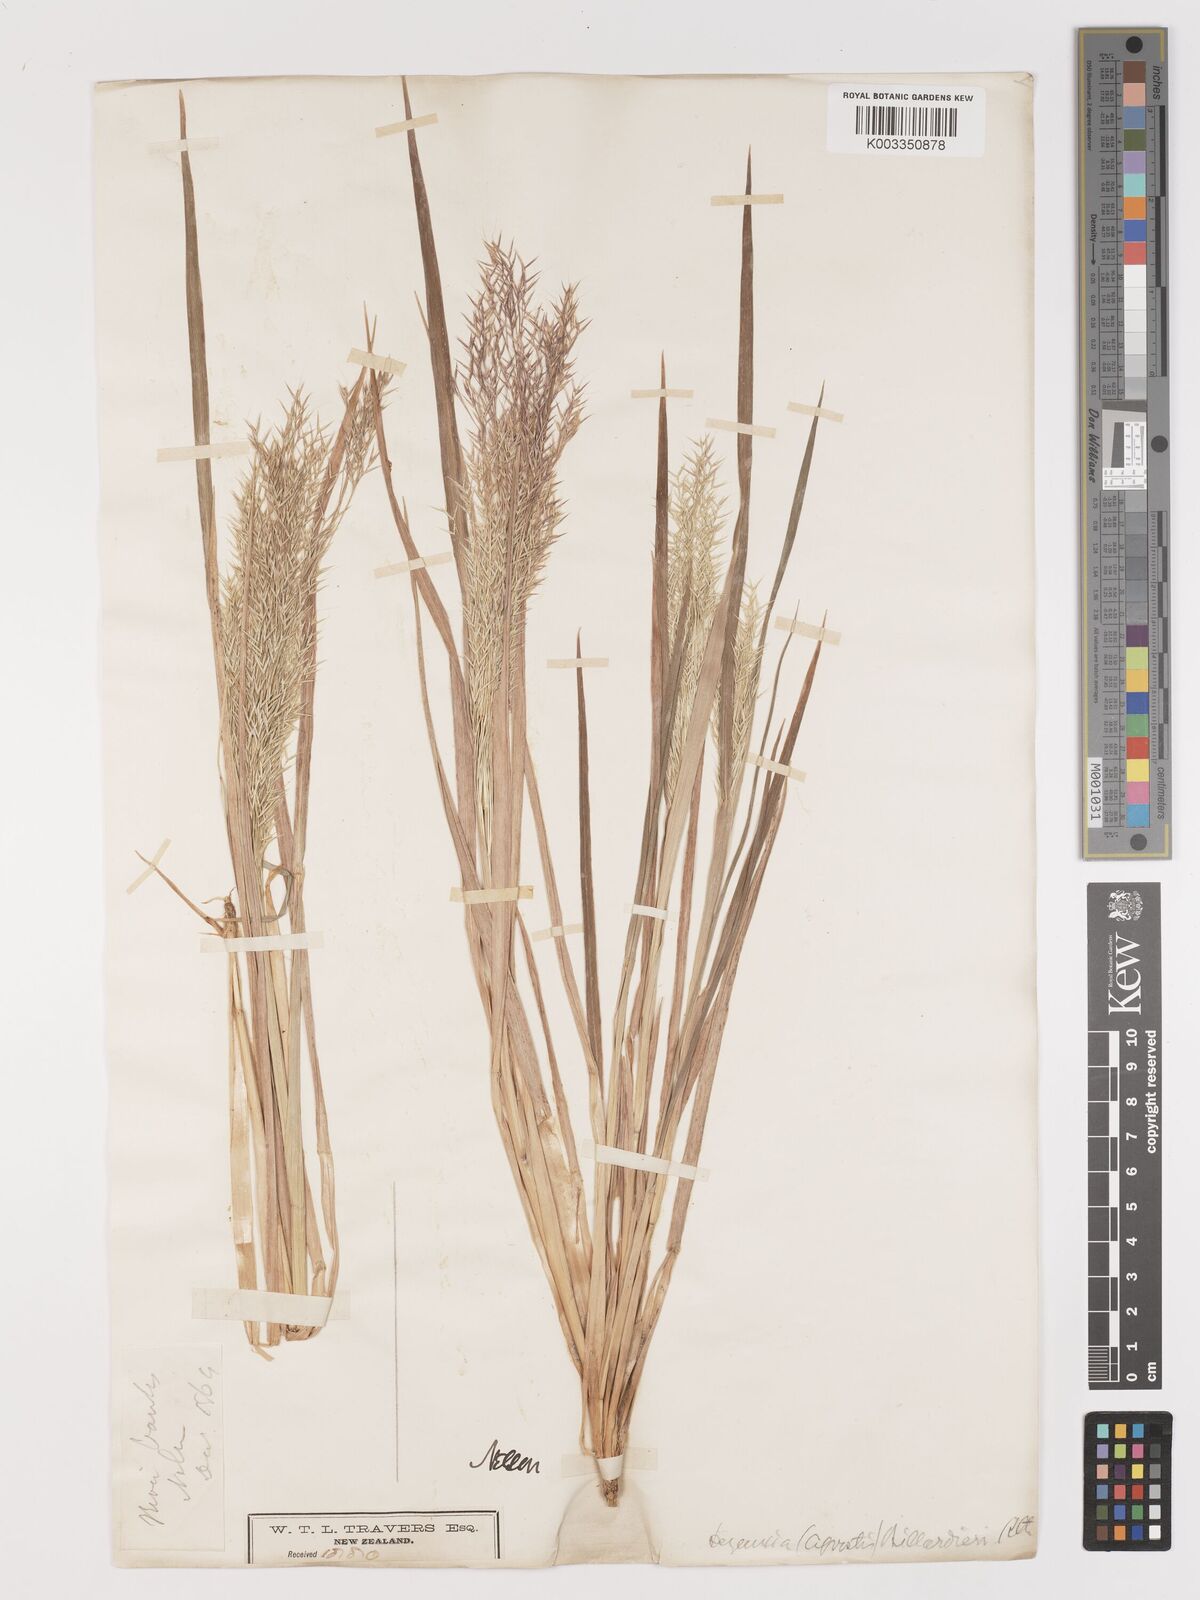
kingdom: Plantae
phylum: Tracheophyta
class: Liliopsida
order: Poales
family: Poaceae
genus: Lachnagrostis
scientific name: Lachnagrostis billardierei
